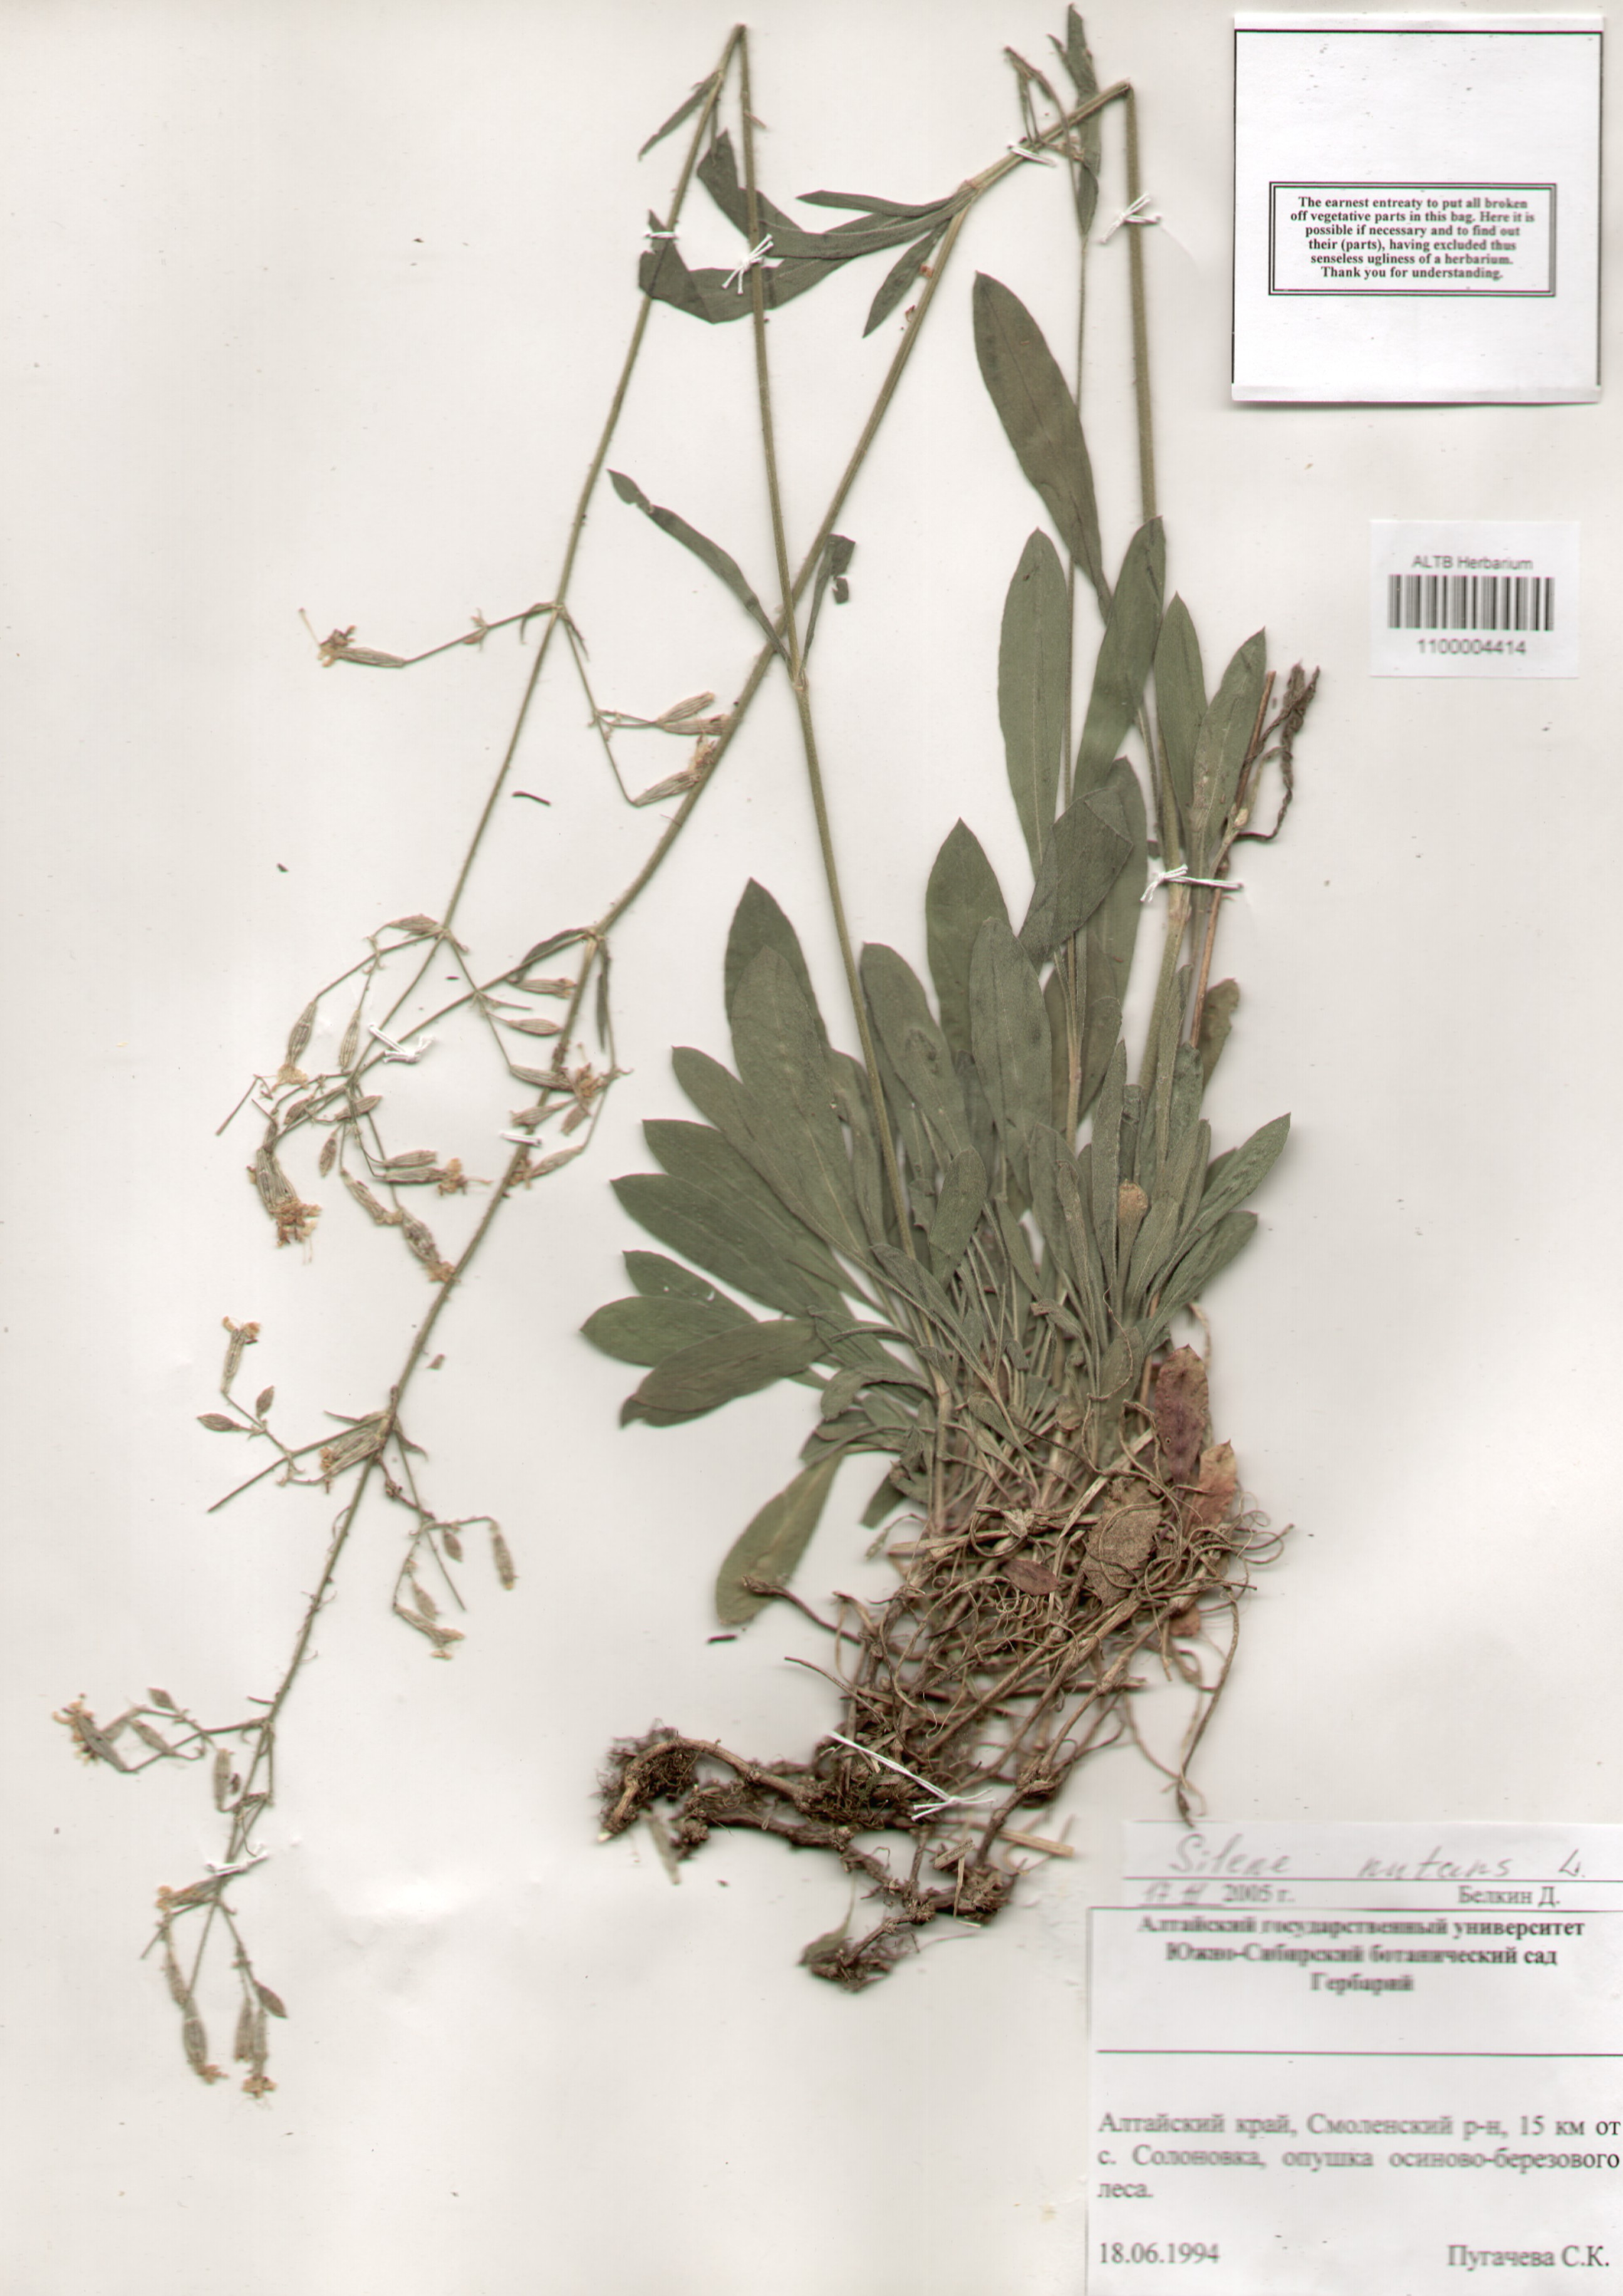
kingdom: Plantae
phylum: Tracheophyta
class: Magnoliopsida
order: Caryophyllales
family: Caryophyllaceae
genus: Silene
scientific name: Silene nutans
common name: Nottingham catchfly
